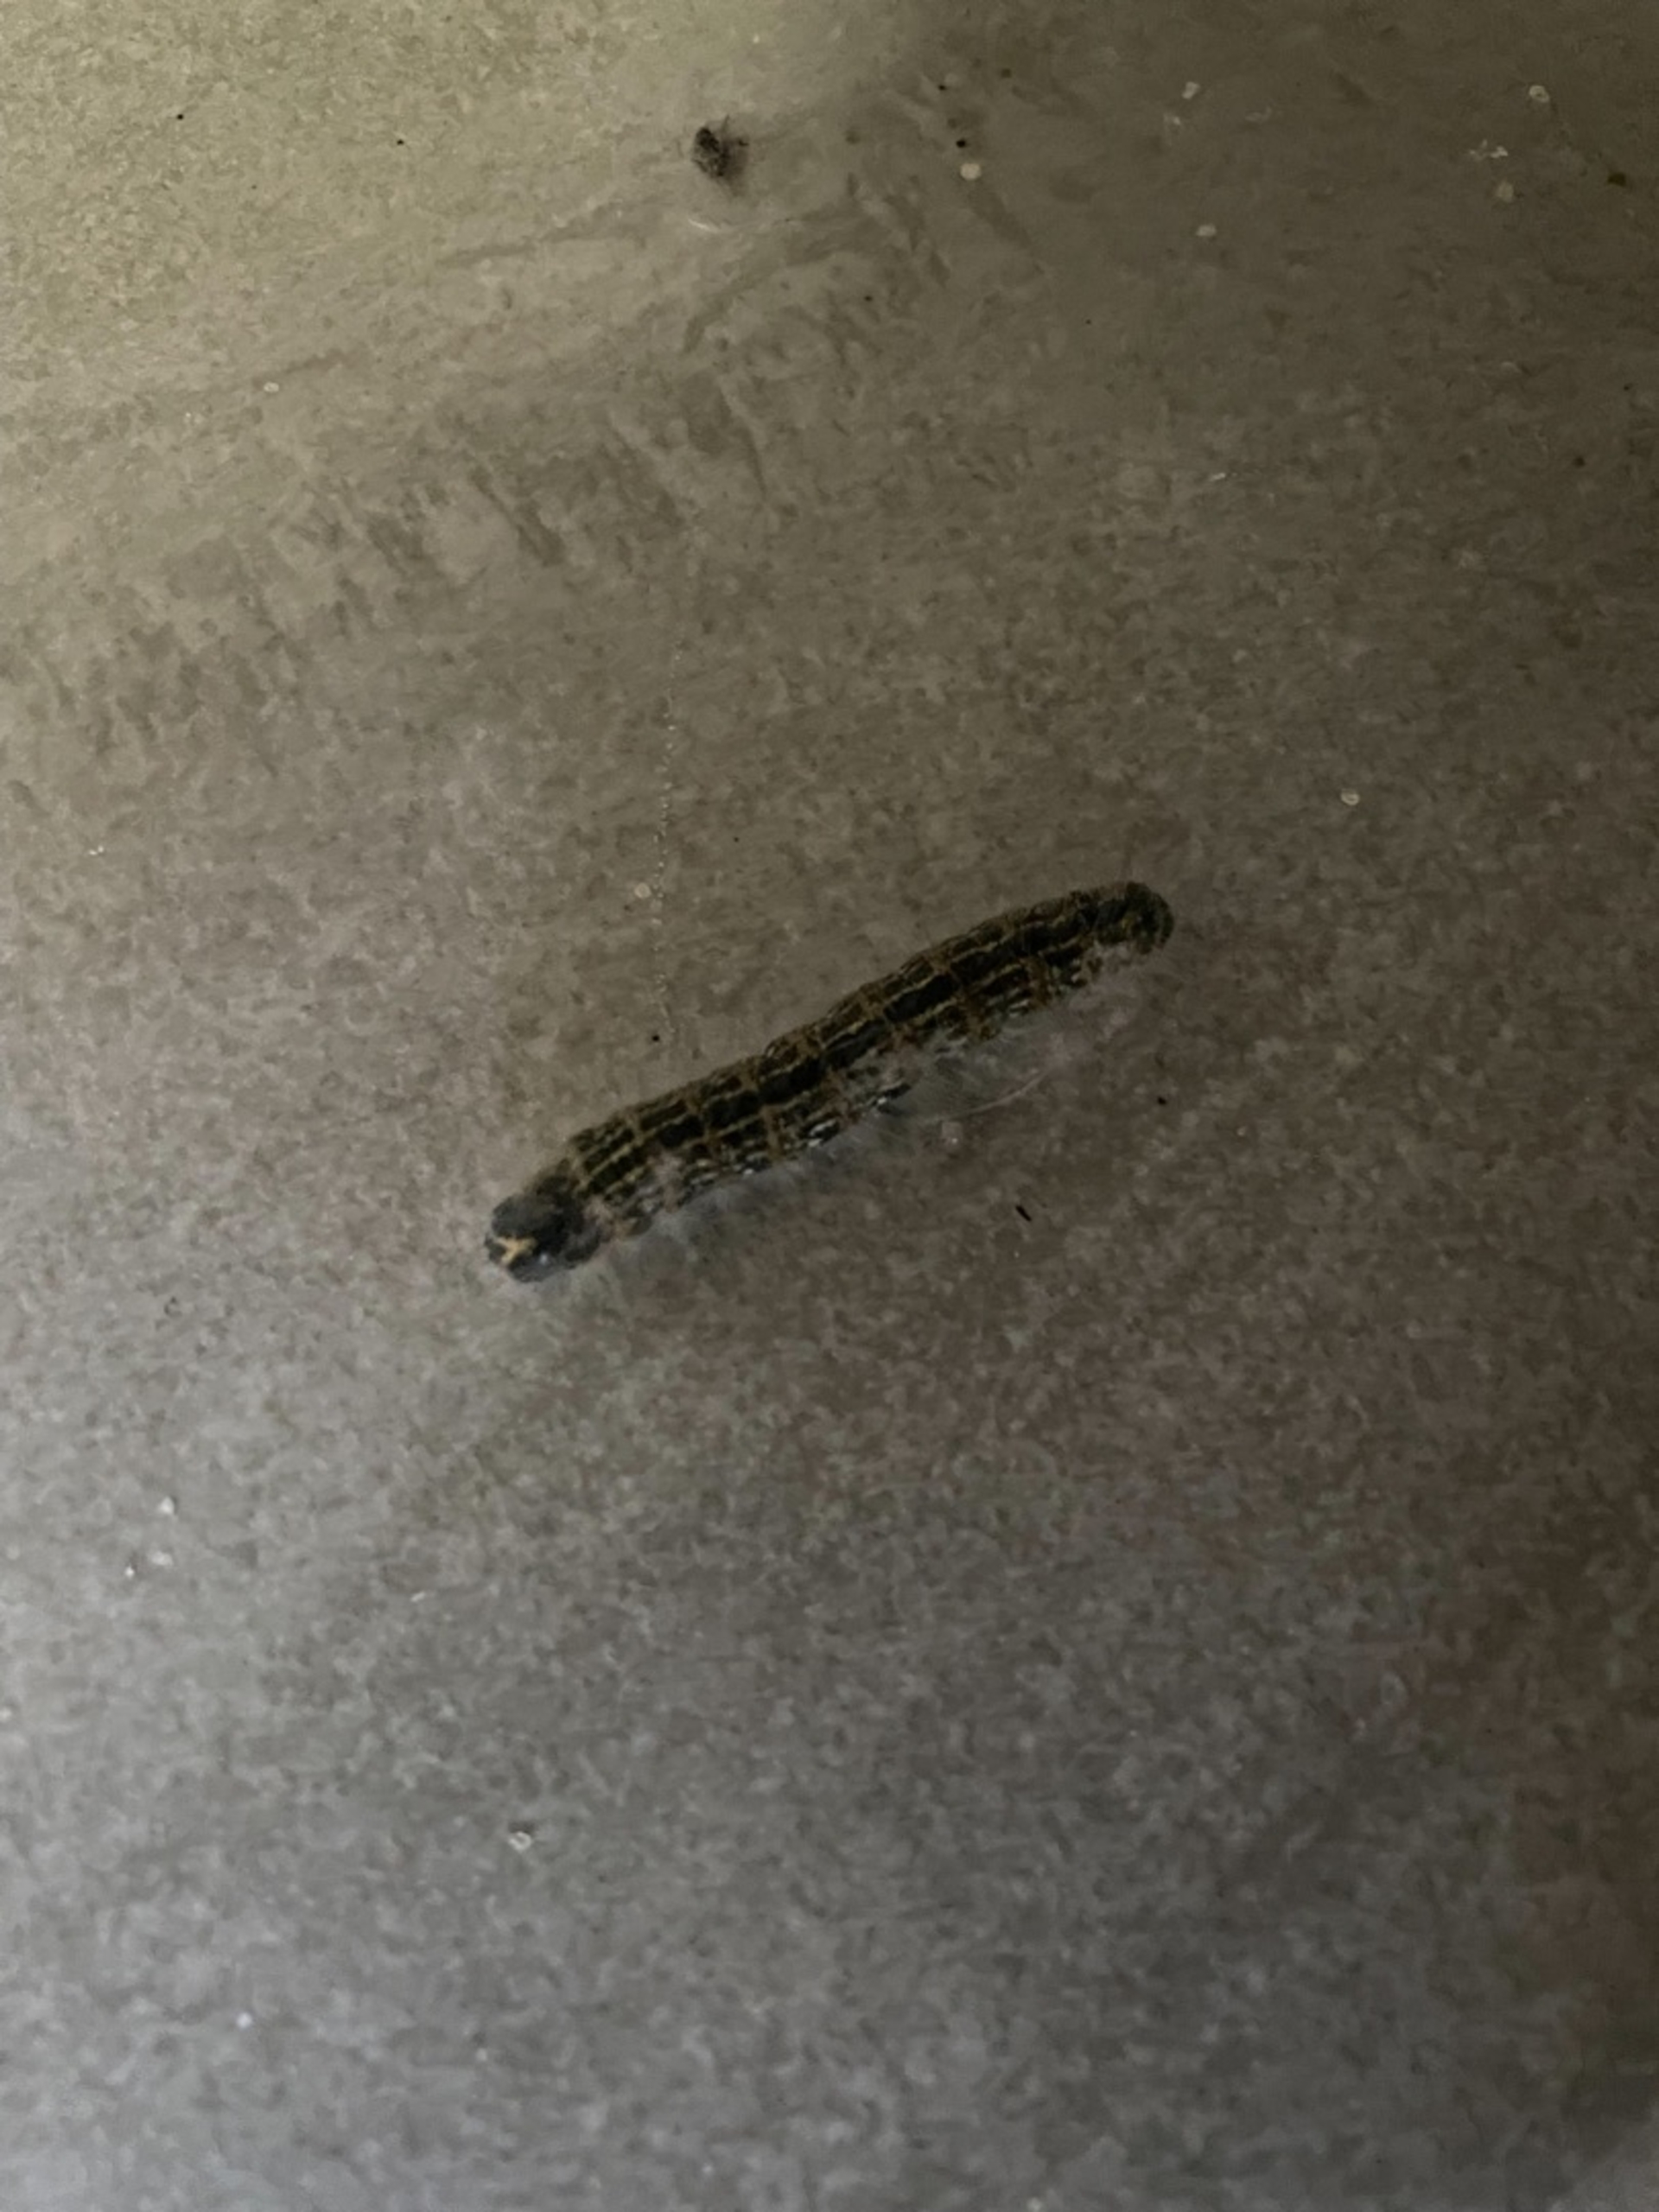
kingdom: Animalia
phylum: Arthropoda
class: Insecta
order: Lepidoptera
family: Notodontidae
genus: Phalera
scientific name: Phalera bucephala
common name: Måneplet
